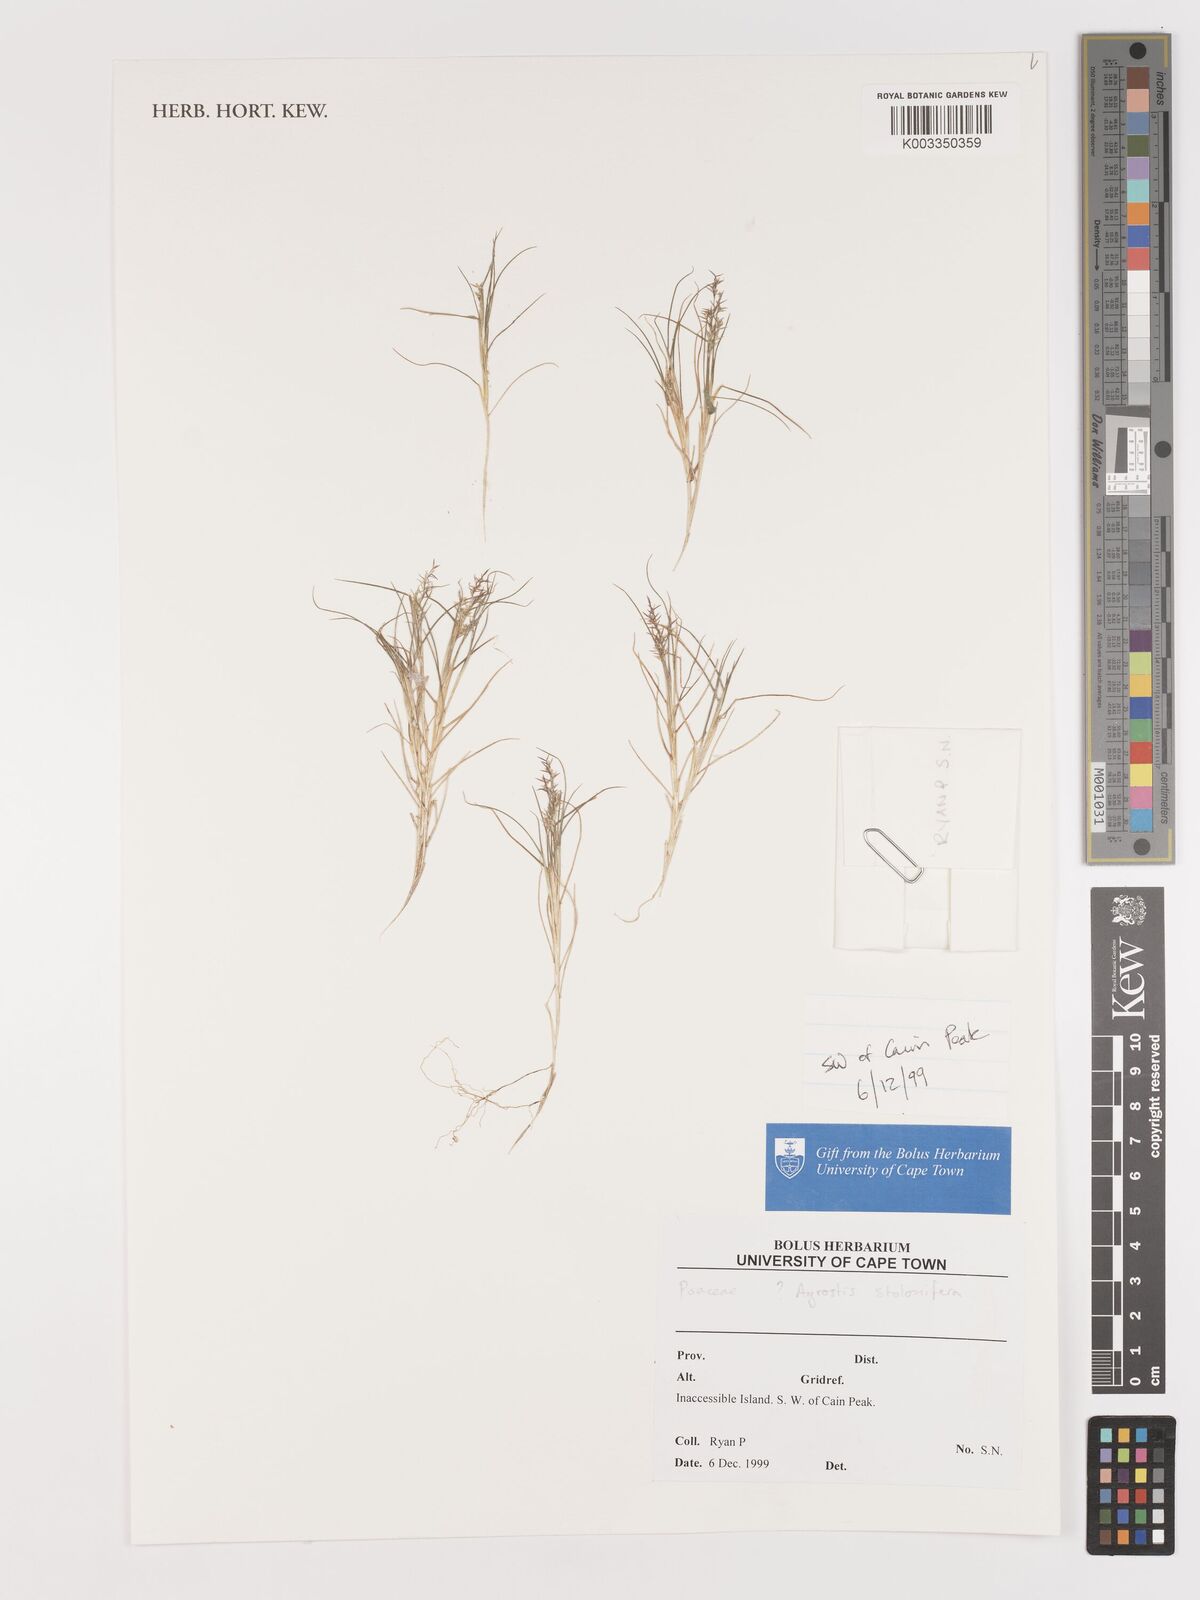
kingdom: Plantae
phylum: Tracheophyta
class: Liliopsida
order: Poales
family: Poaceae
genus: Agrostis
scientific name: Agrostis stolonifera
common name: Creeping bentgrass
